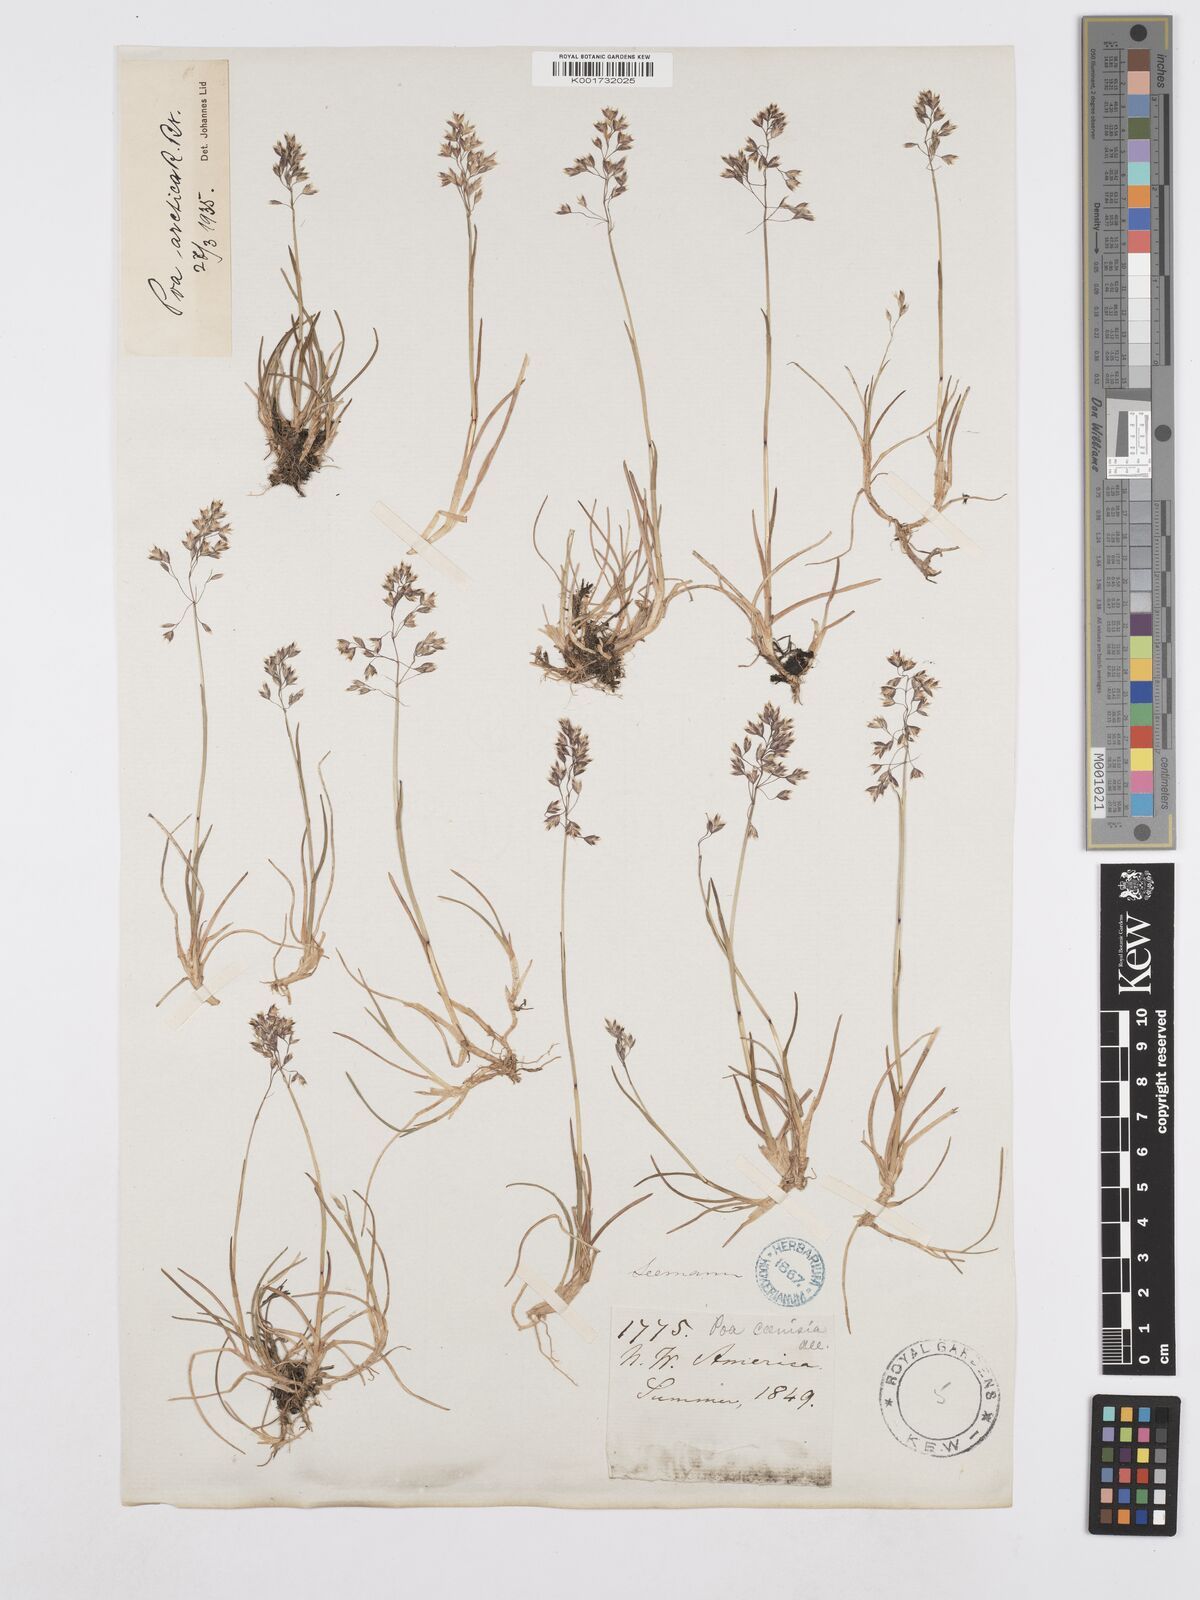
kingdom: Plantae
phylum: Tracheophyta
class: Liliopsida
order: Poales
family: Poaceae
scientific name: Poaceae
